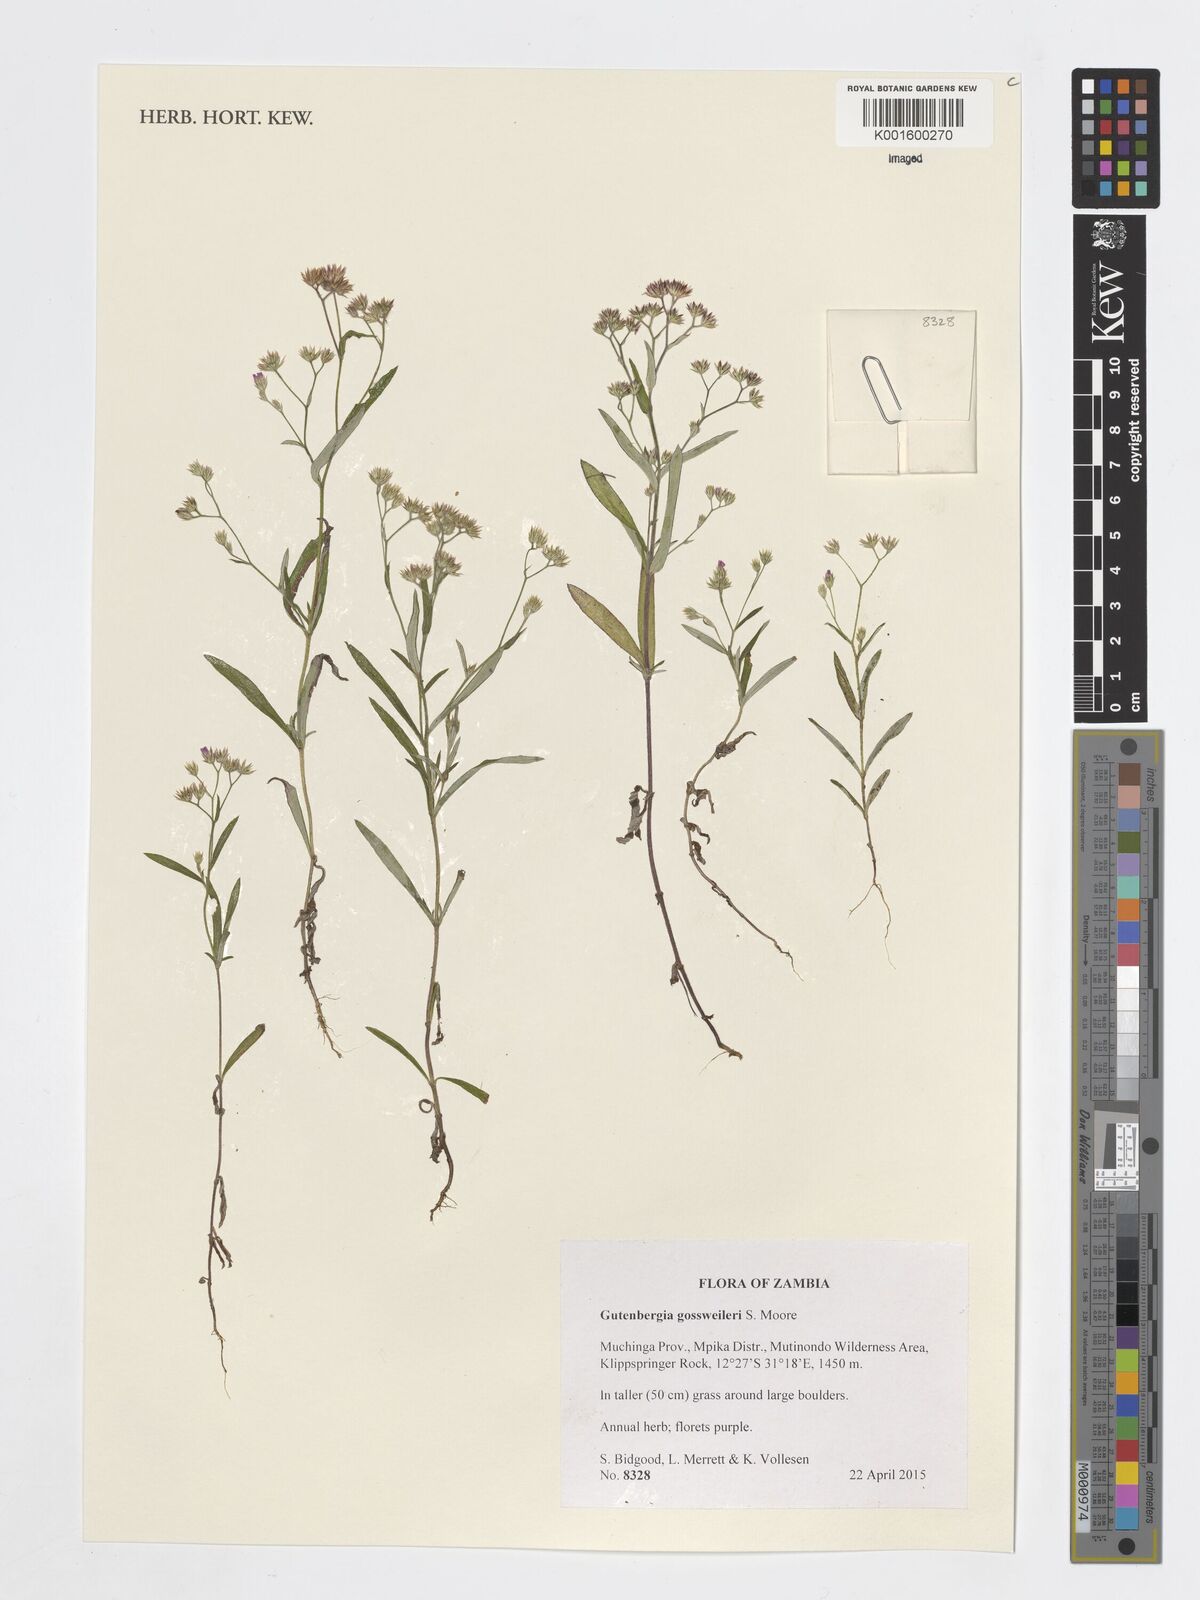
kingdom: Plantae
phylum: Tracheophyta
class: Magnoliopsida
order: Asterales
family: Asteraceae
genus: Gutenbergia
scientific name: Gutenbergia gossweileri
